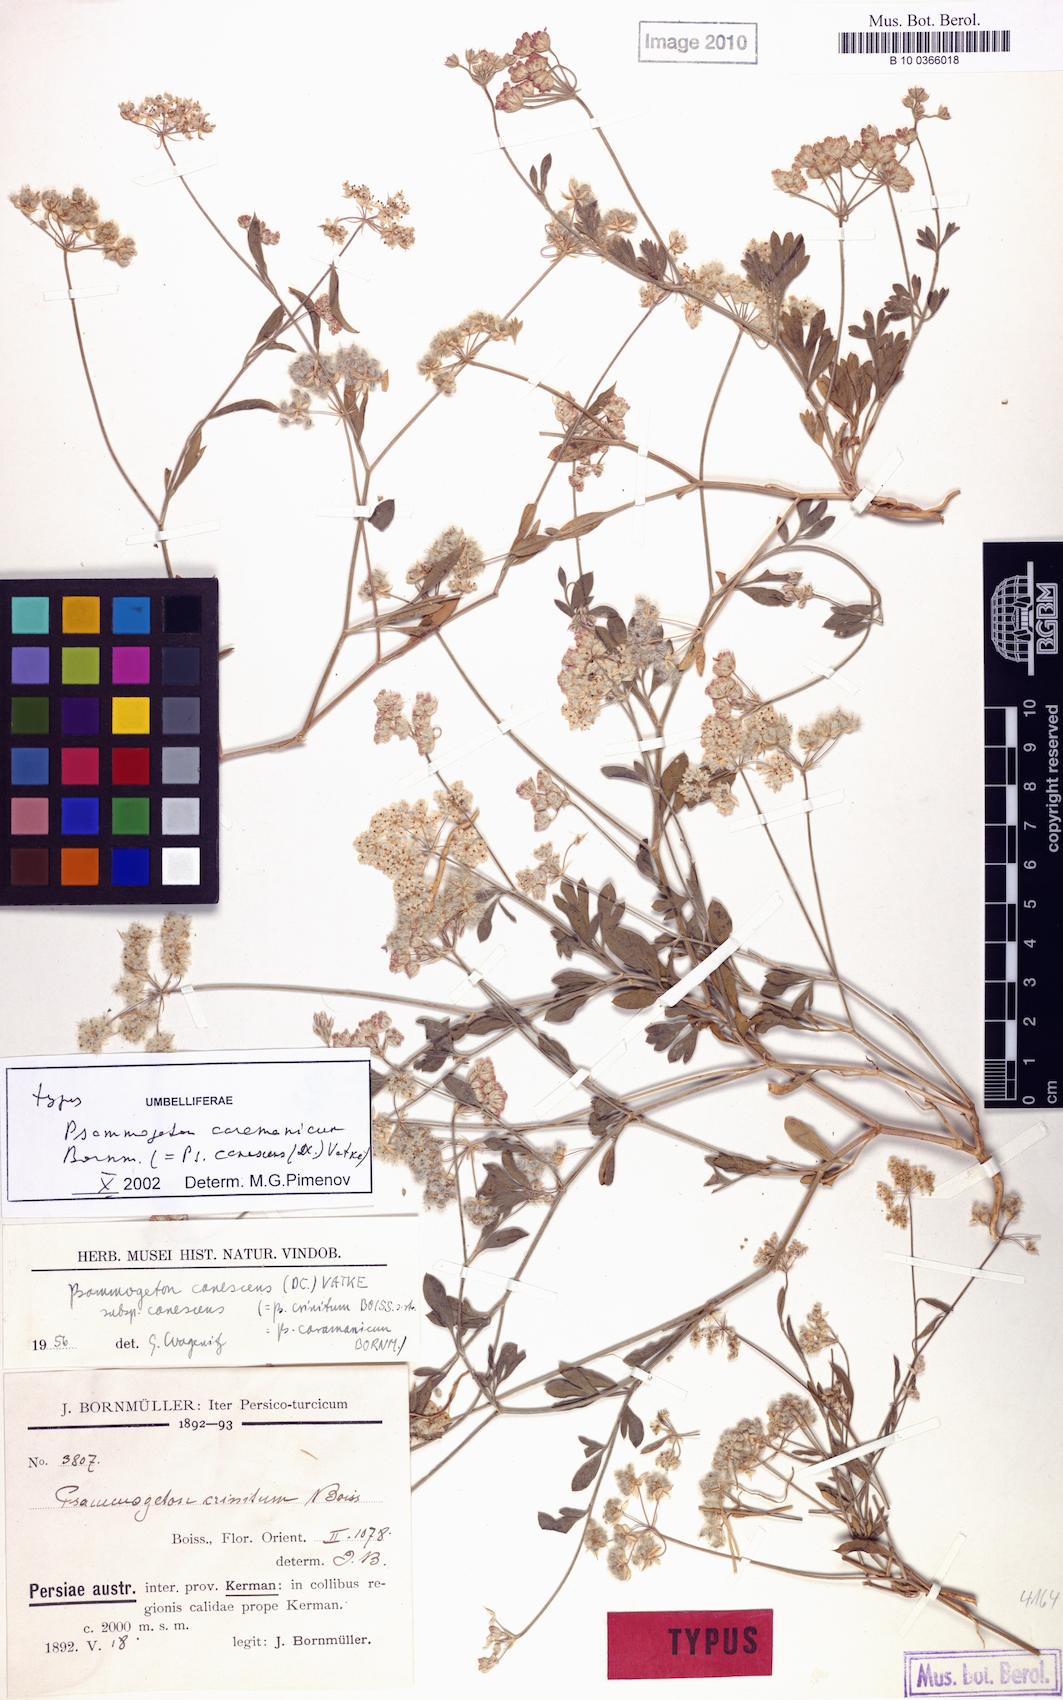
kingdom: Plantae
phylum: Tracheophyta
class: Magnoliopsida
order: Apiales
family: Apiaceae
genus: Psammogeton
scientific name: Psammogeton canescens
